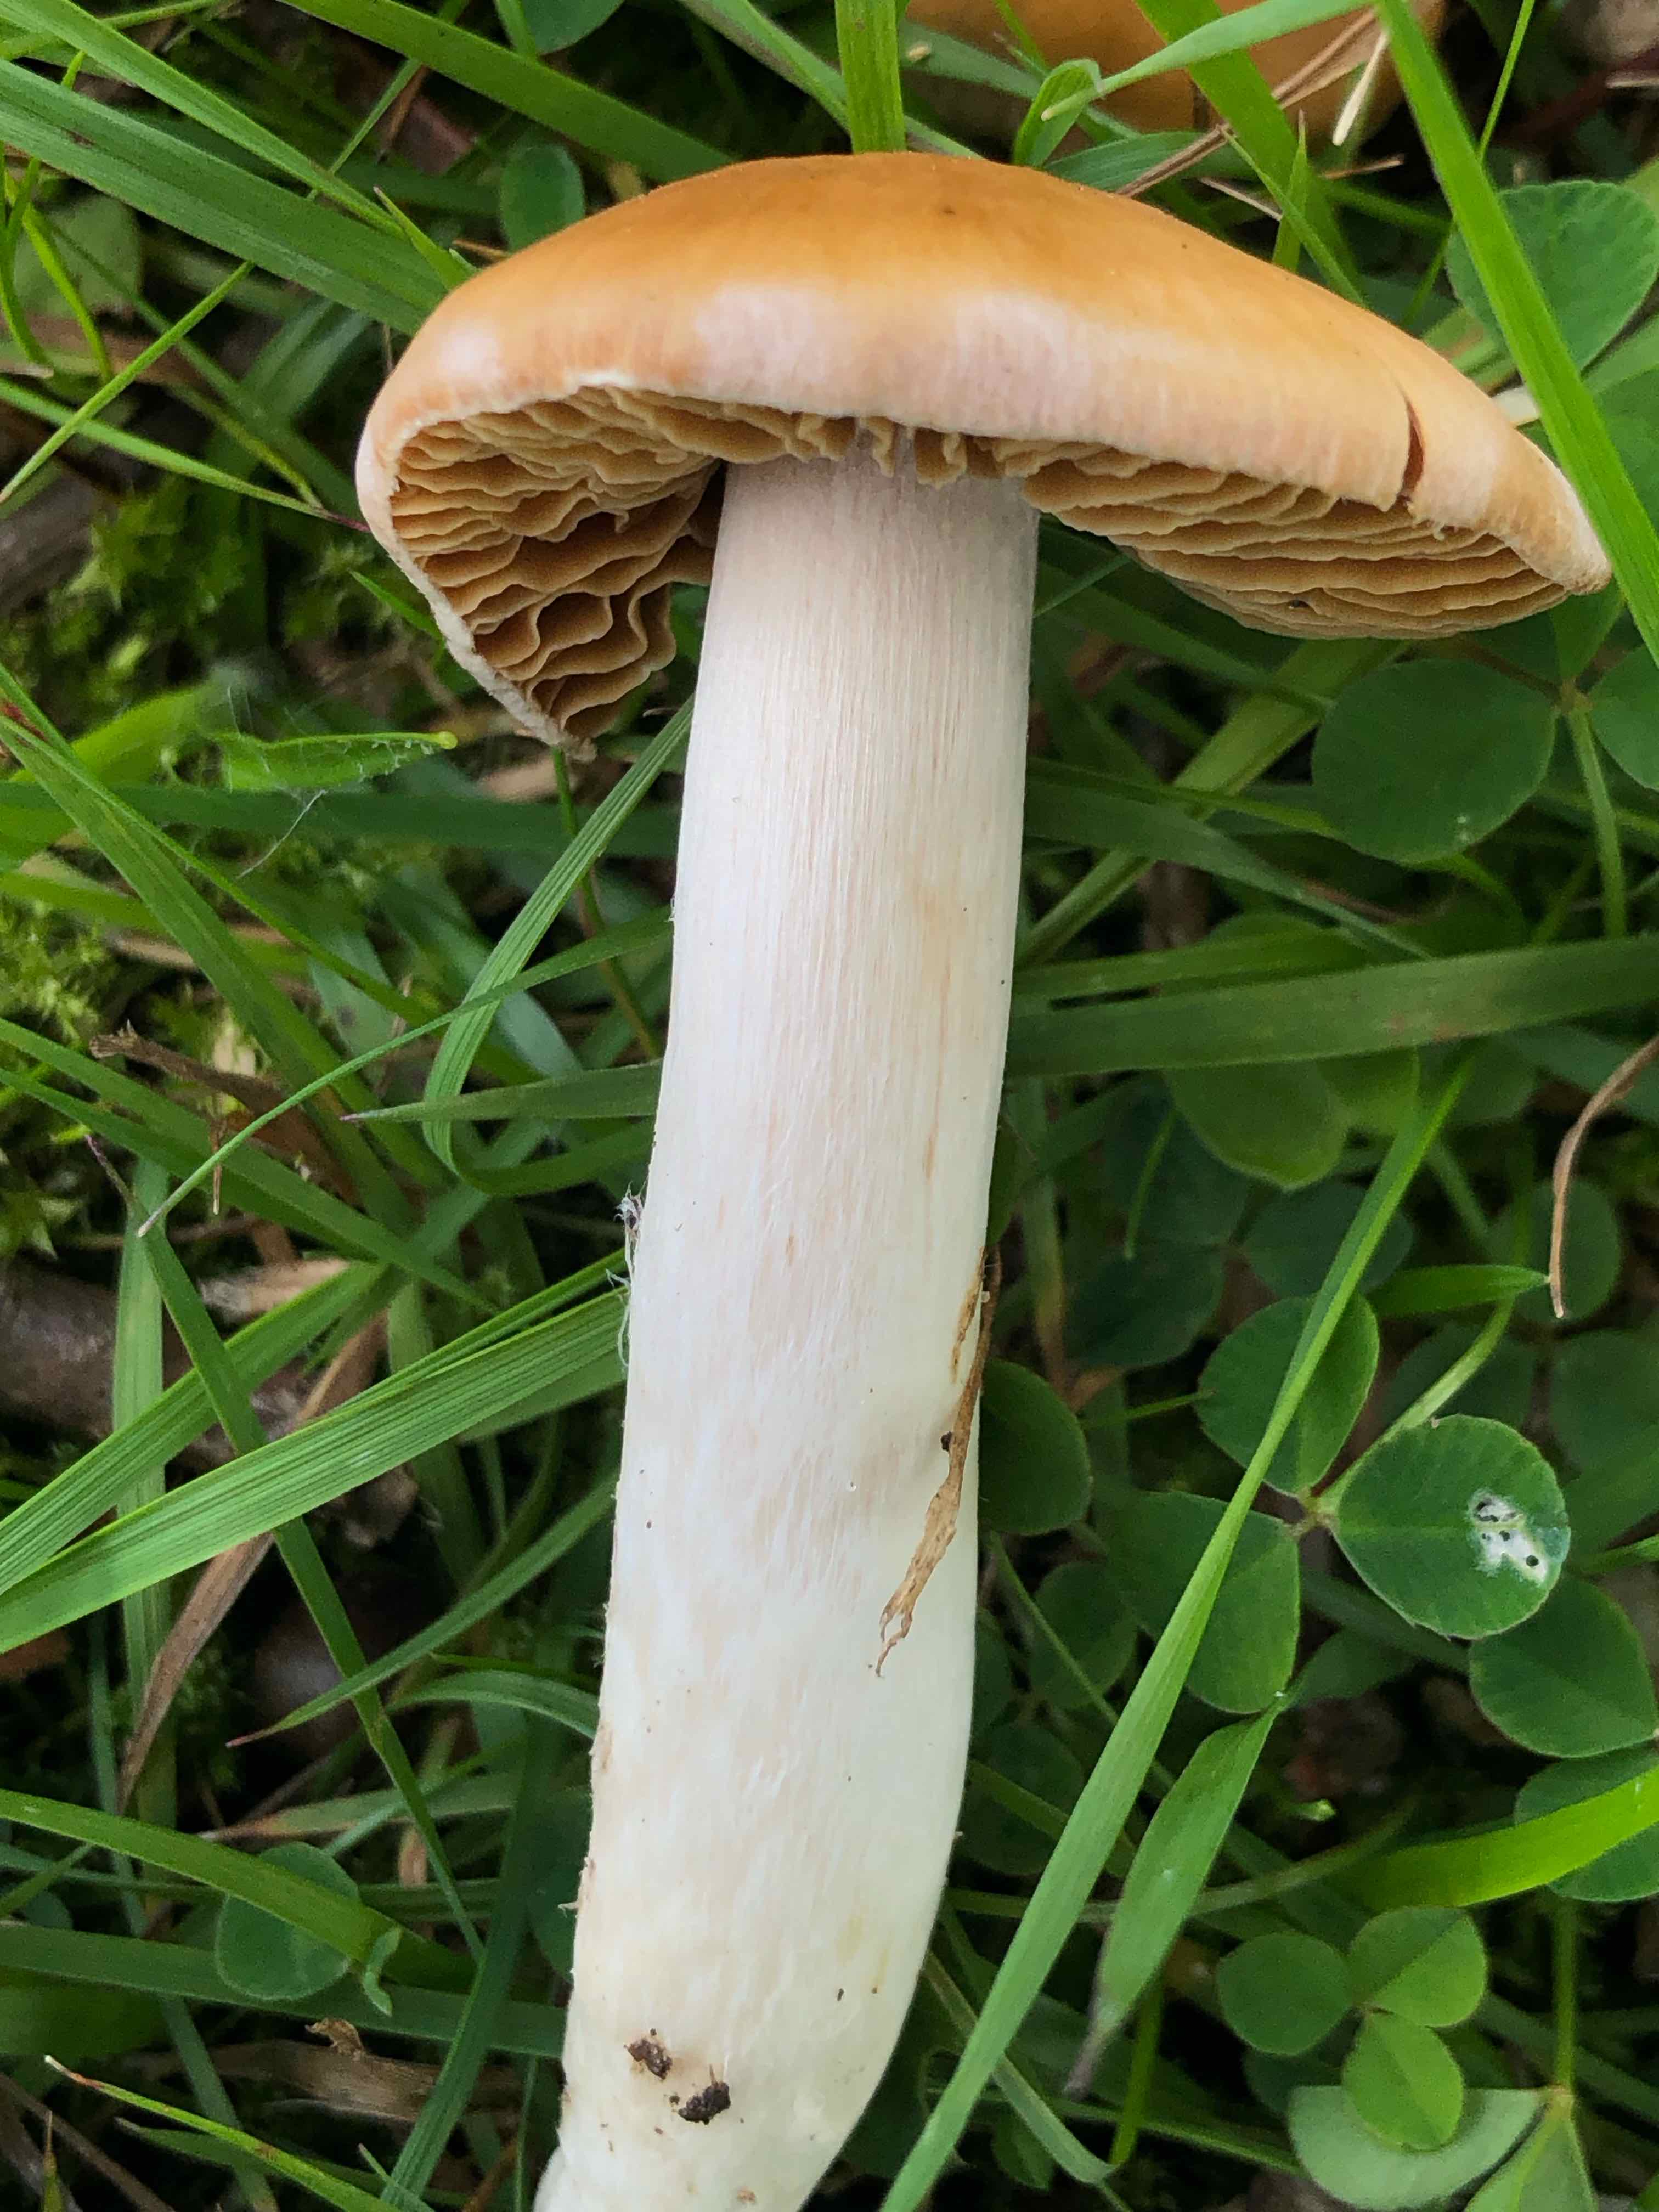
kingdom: Fungi
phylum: Basidiomycota
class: Agaricomycetes
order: Agaricales
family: Cortinariaceae
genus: Cortinarius
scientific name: Cortinarius
